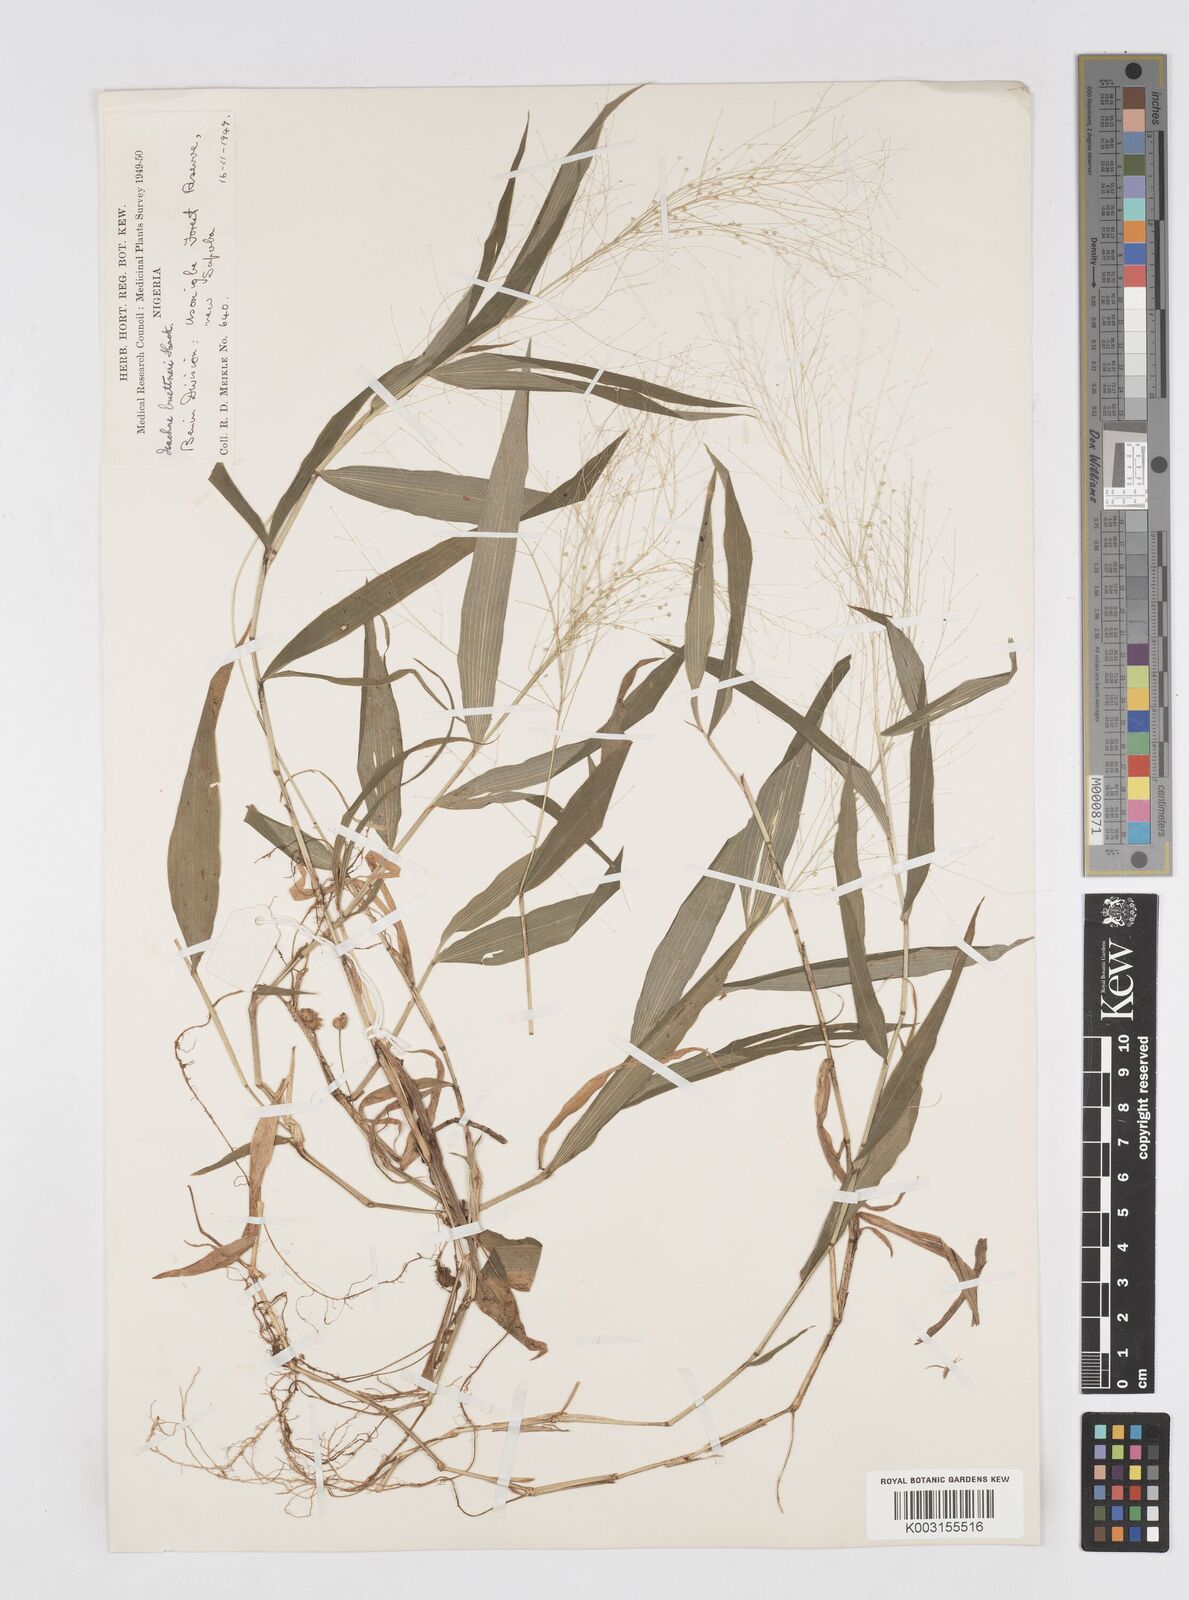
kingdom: Plantae
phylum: Tracheophyta
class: Liliopsida
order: Poales
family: Poaceae
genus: Isachne
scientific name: Isachne albens
